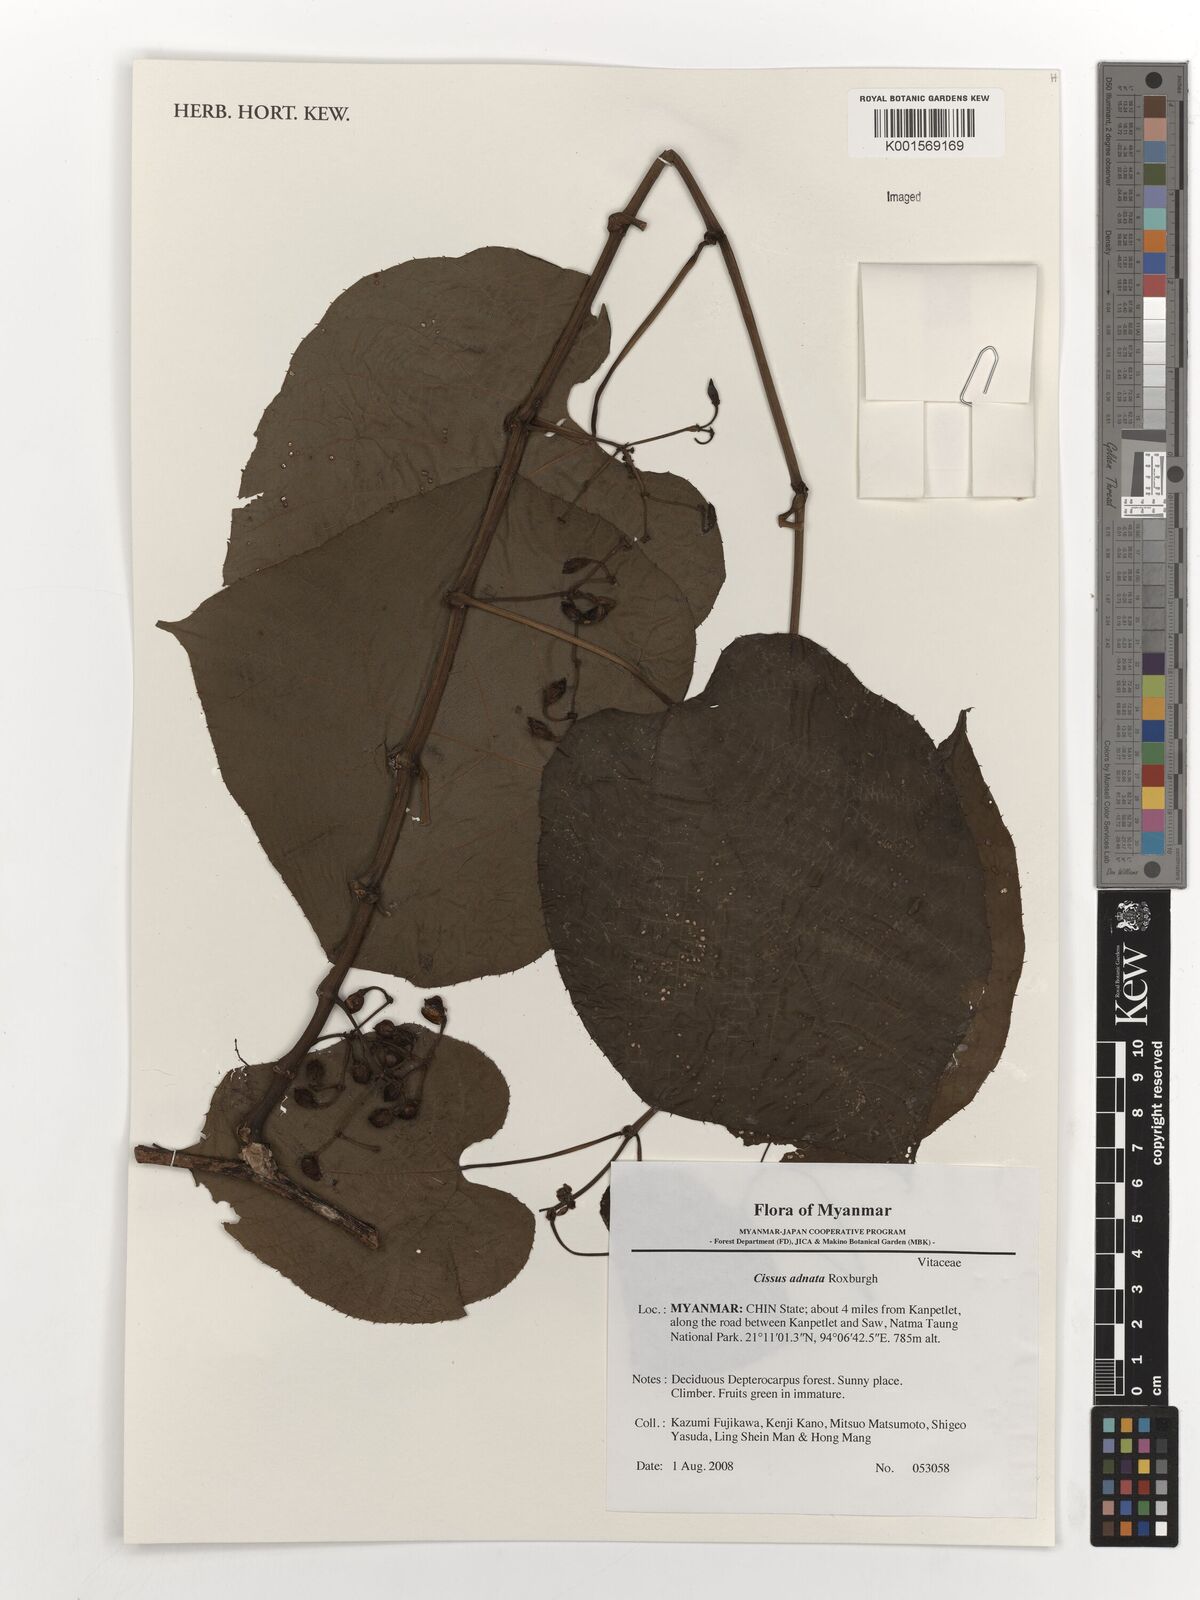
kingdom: Plantae
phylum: Tracheophyta
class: Magnoliopsida
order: Vitales
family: Vitaceae
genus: Cissus
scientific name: Cissus adnata
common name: Heart-leaf-grape
